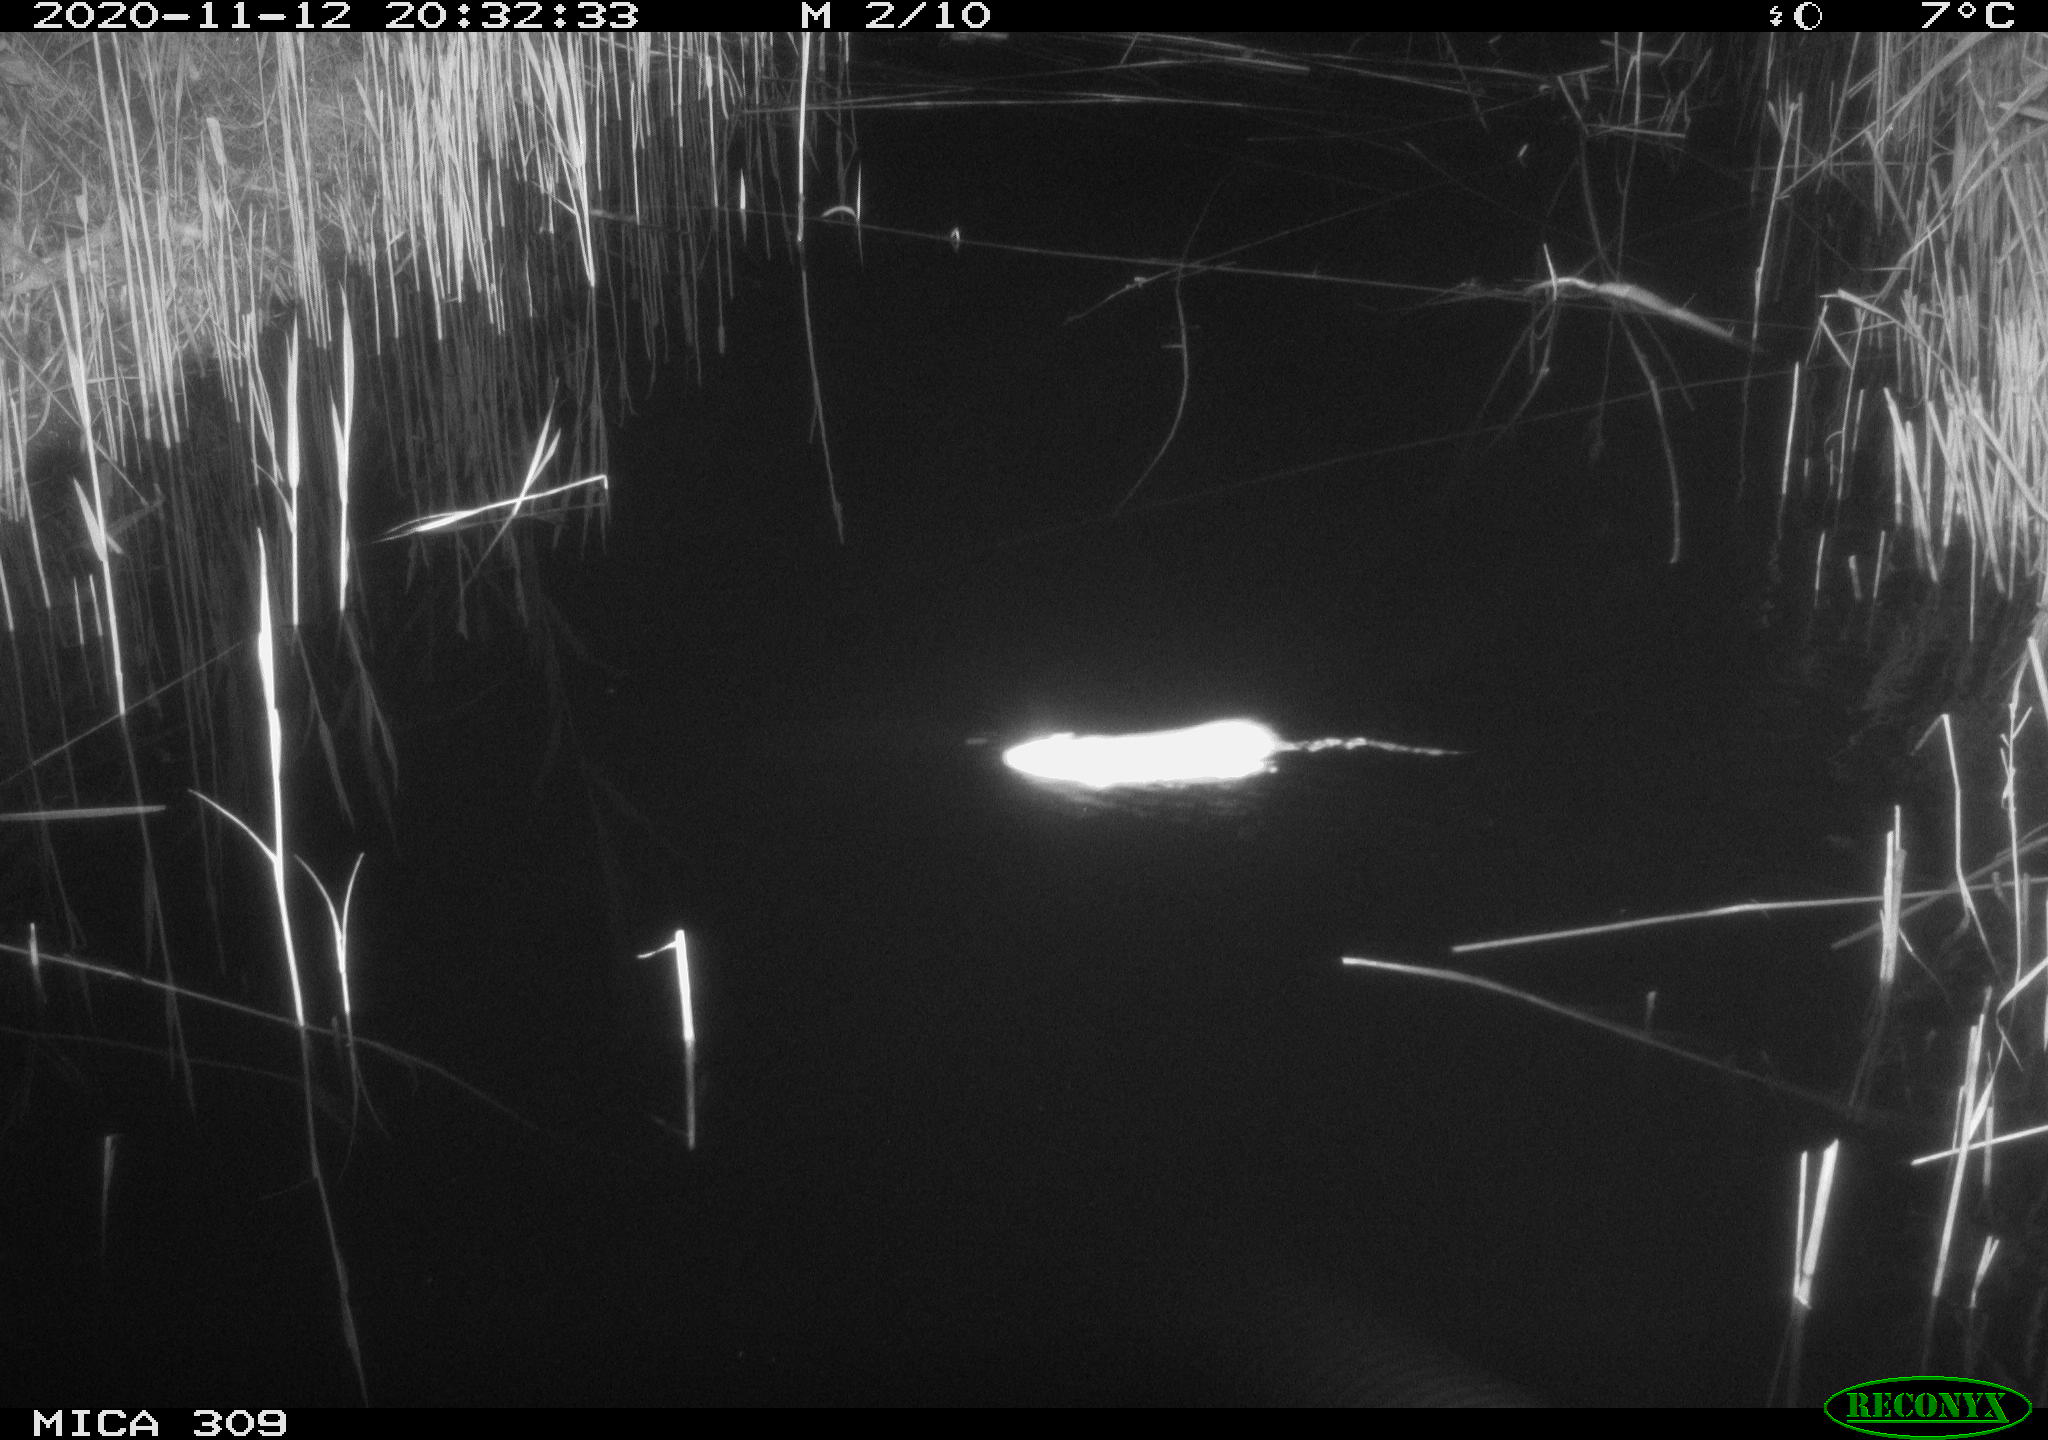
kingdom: Animalia
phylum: Chordata
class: Mammalia
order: Rodentia
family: Muridae
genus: Rattus
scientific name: Rattus norvegicus
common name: Brown rat
